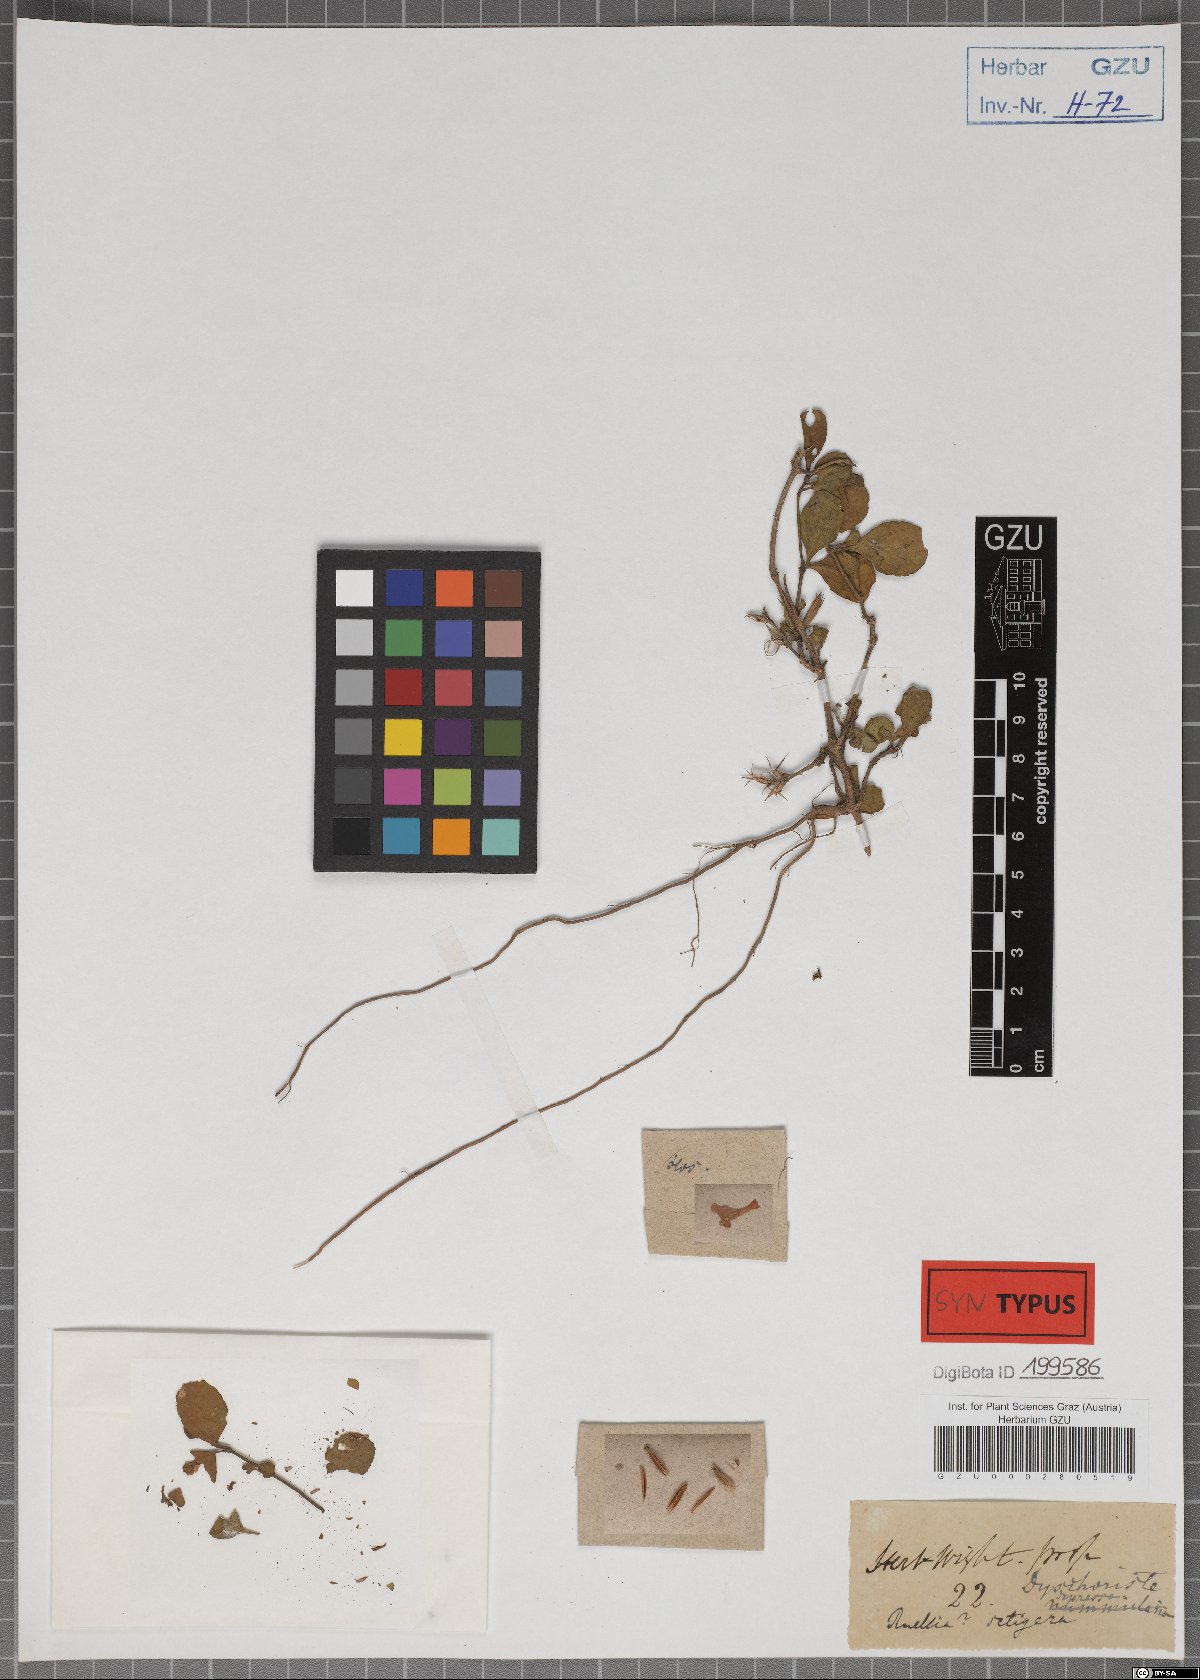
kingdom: Plantae
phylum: Tracheophyta
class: Magnoliopsida
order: Lamiales
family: Acanthaceae
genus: Hygrophila
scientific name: Hygrophila erecta
